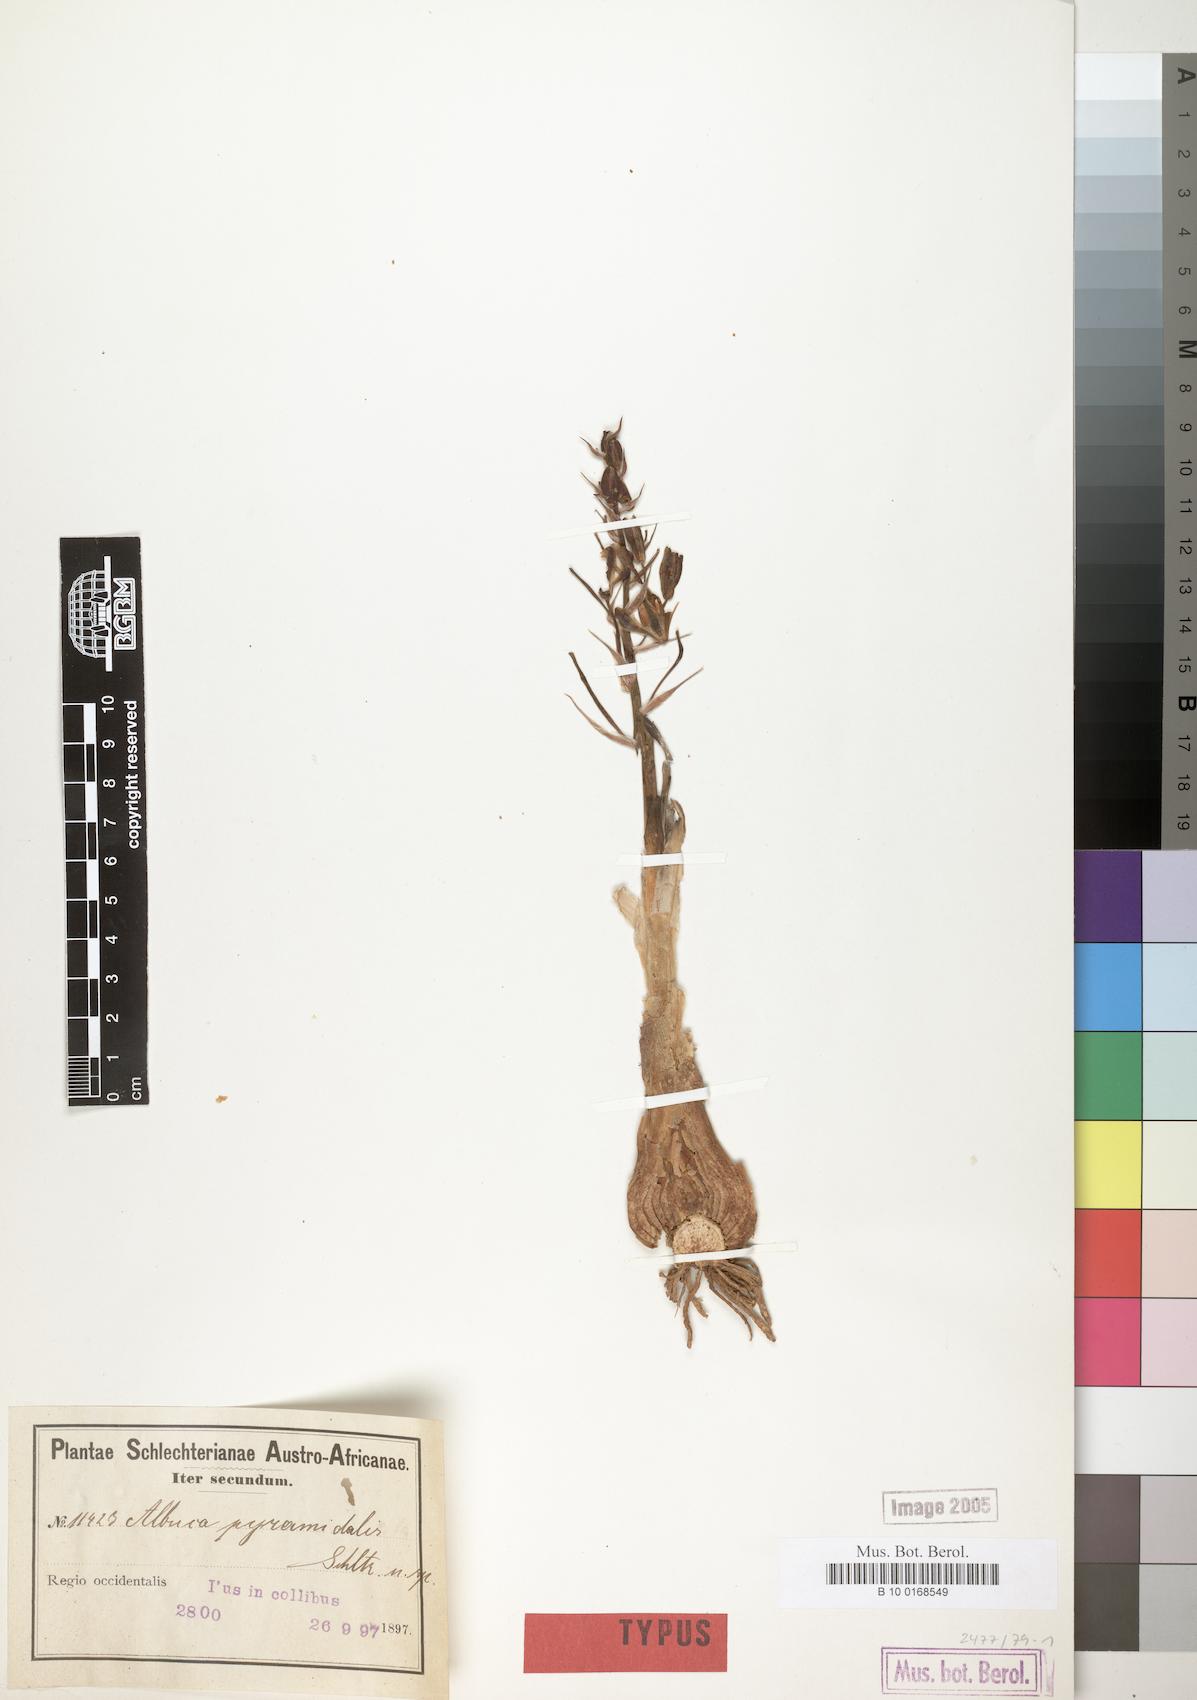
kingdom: Plantae
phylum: Tracheophyta
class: Liliopsida
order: Asparagales
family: Asparagaceae
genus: Albuca
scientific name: Albuca
